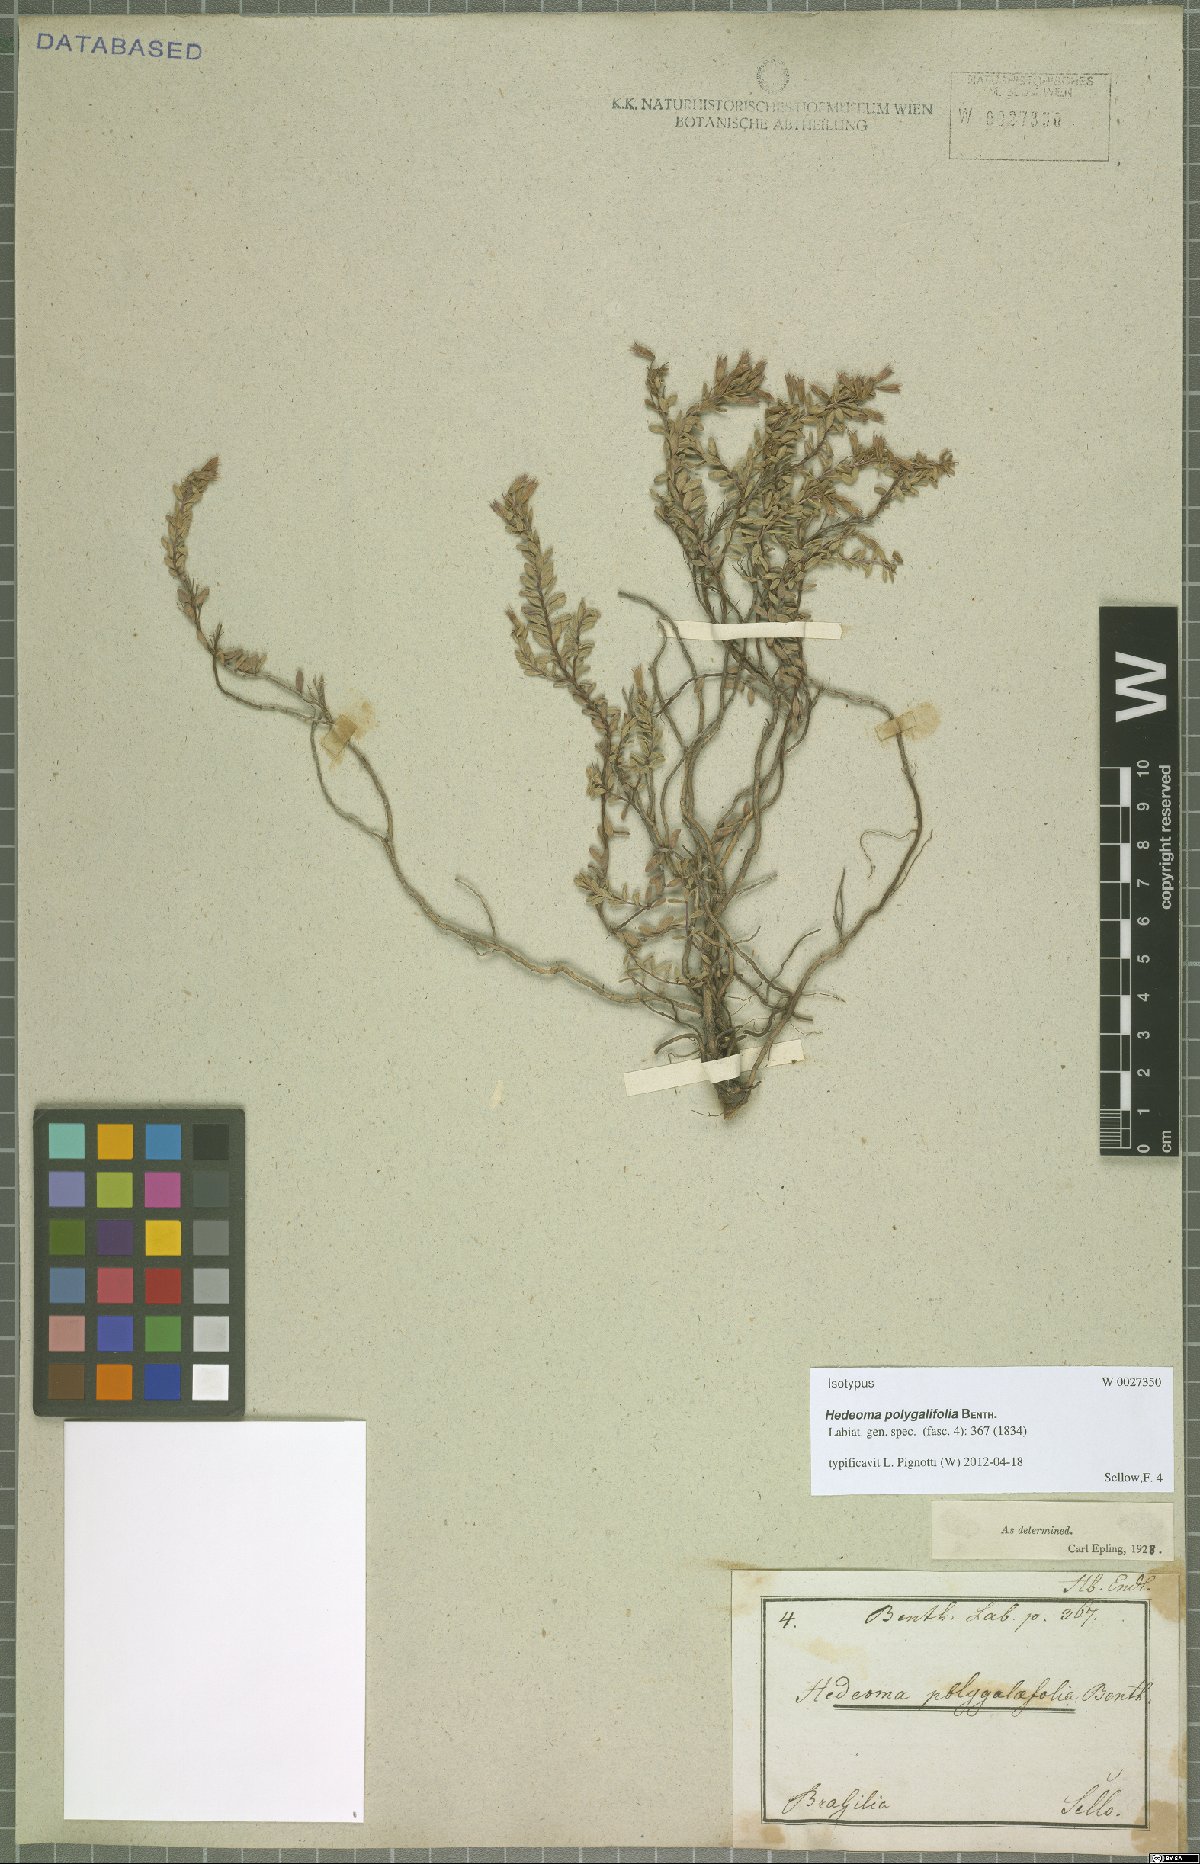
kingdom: Plantae
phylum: Tracheophyta
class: Magnoliopsida
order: Lamiales
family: Lamiaceae
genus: Hedeoma
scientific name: Hedeoma polygalifolia
